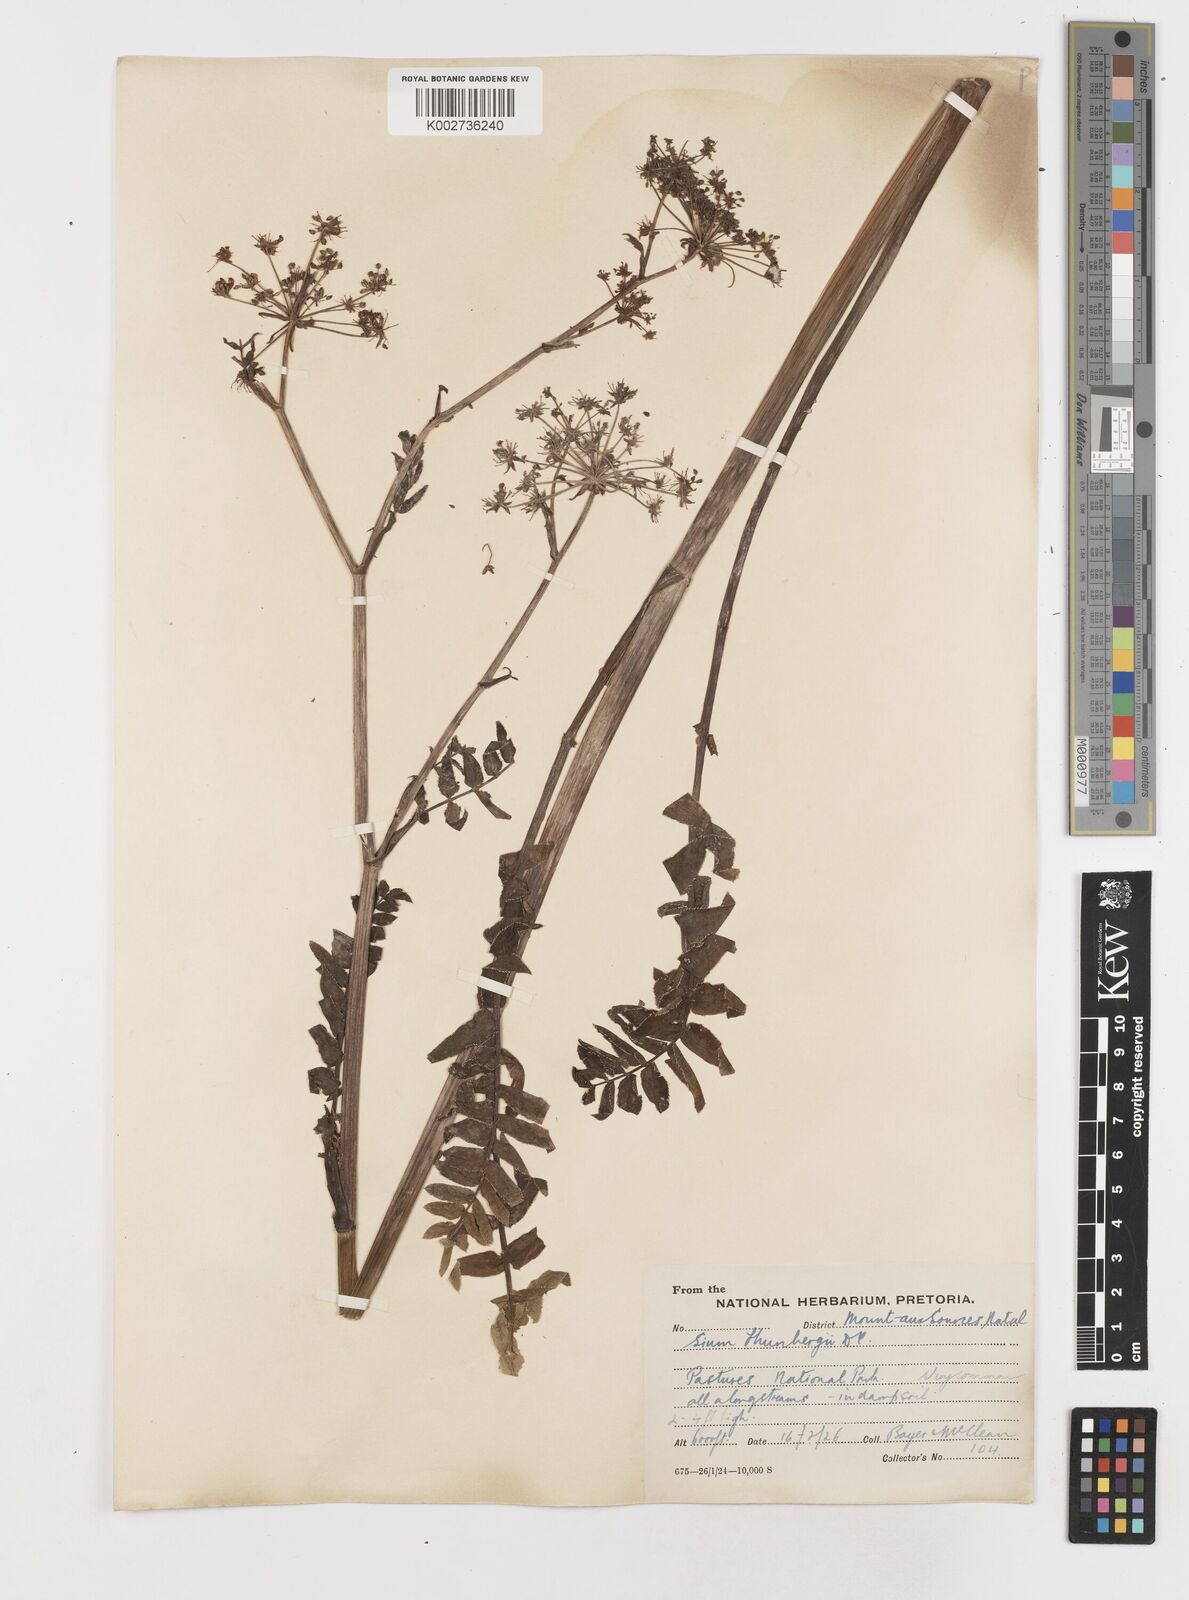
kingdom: Plantae
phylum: Tracheophyta
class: Magnoliopsida
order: Apiales
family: Apiaceae
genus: Berula
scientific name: Berula erecta
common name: Lesser water-parsnip
